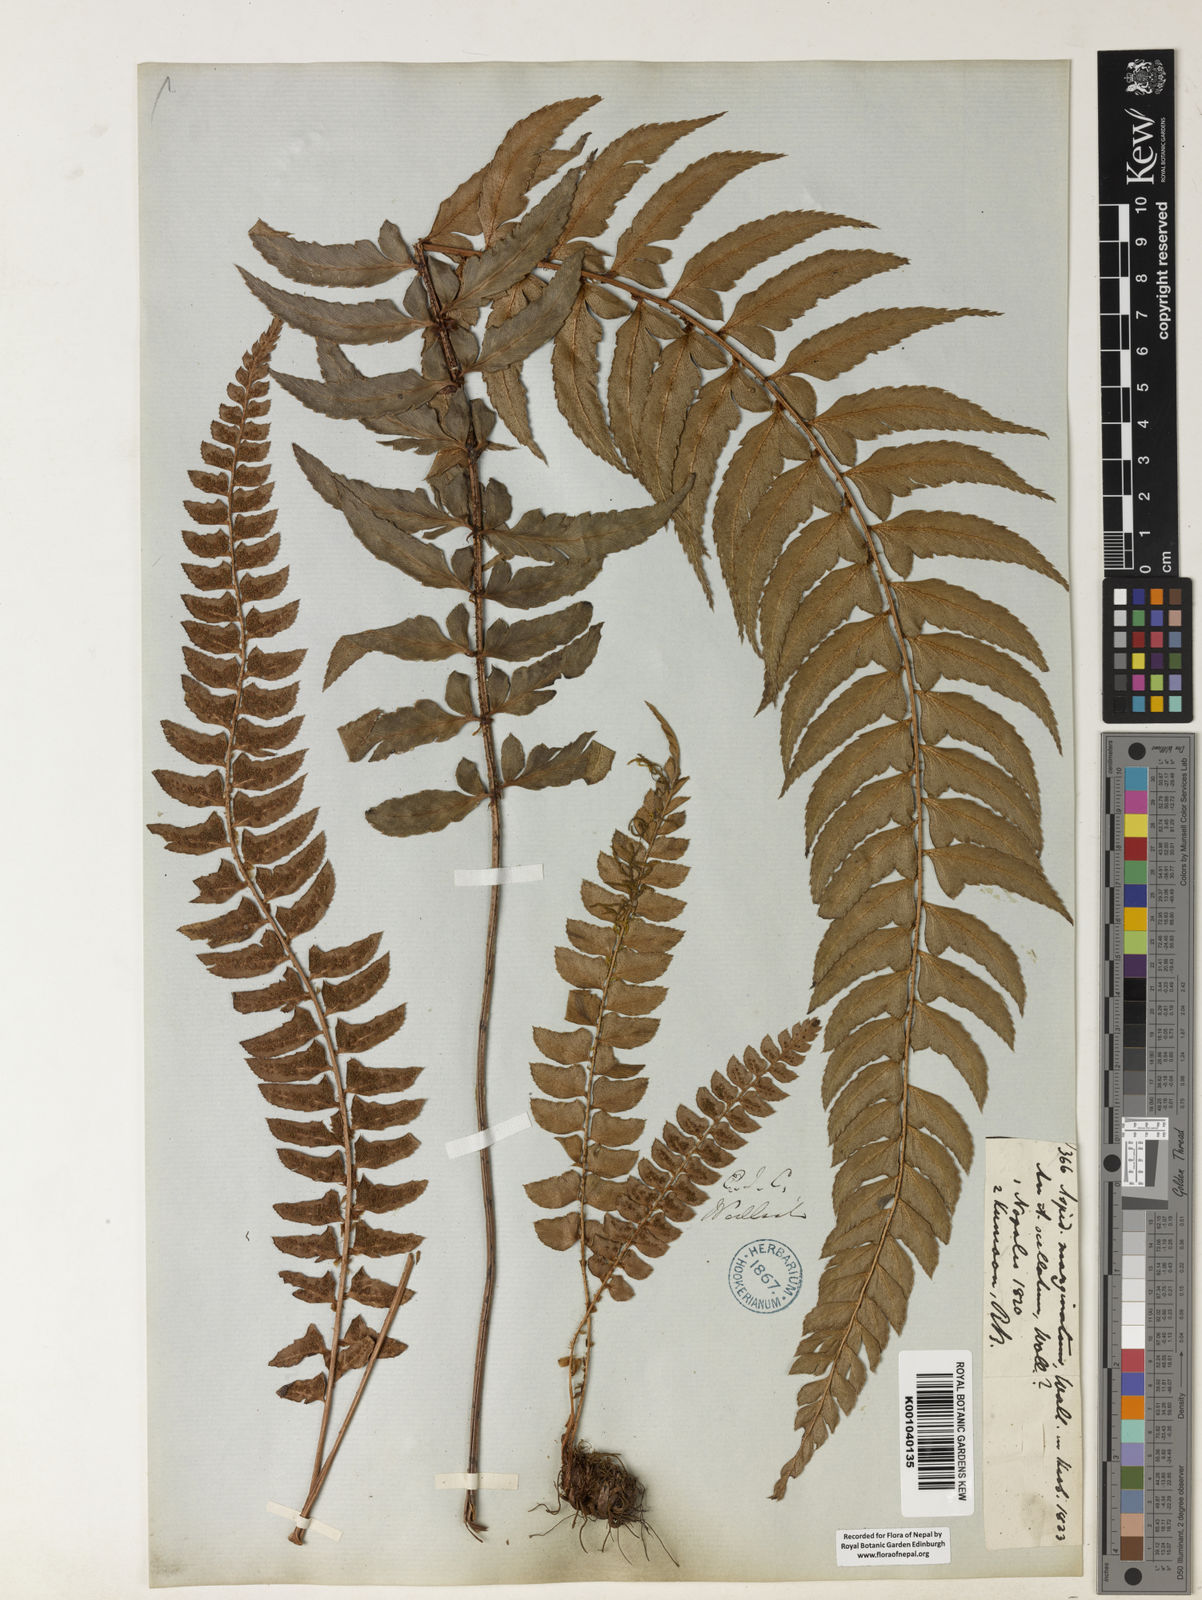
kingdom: Plantae
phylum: Tracheophyta
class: Polypodiopsida
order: Polypodiales
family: Dryopteridaceae
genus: Polystichum
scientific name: Polystichum nepalense
